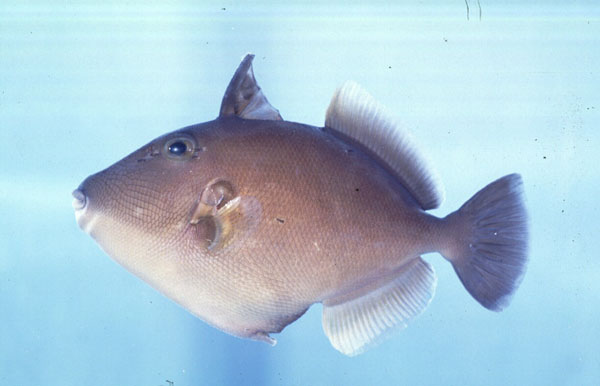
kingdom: Animalia
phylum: Chordata
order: Tetraodontiformes
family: Balistidae
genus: Sufflamen
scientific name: Sufflamen fraenatum
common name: Bridle triggerfish
